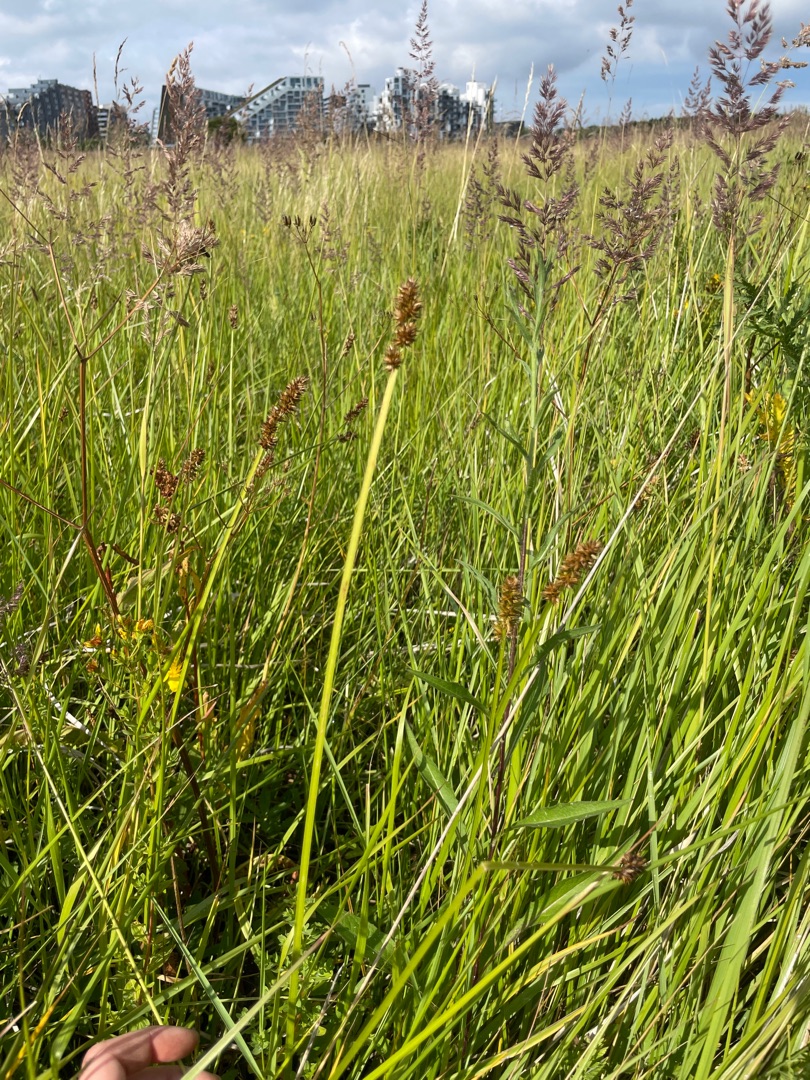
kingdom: Plantae
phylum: Tracheophyta
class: Liliopsida
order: Poales
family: Cyperaceae
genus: Carex
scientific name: Carex otrubae
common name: Sylt-star
